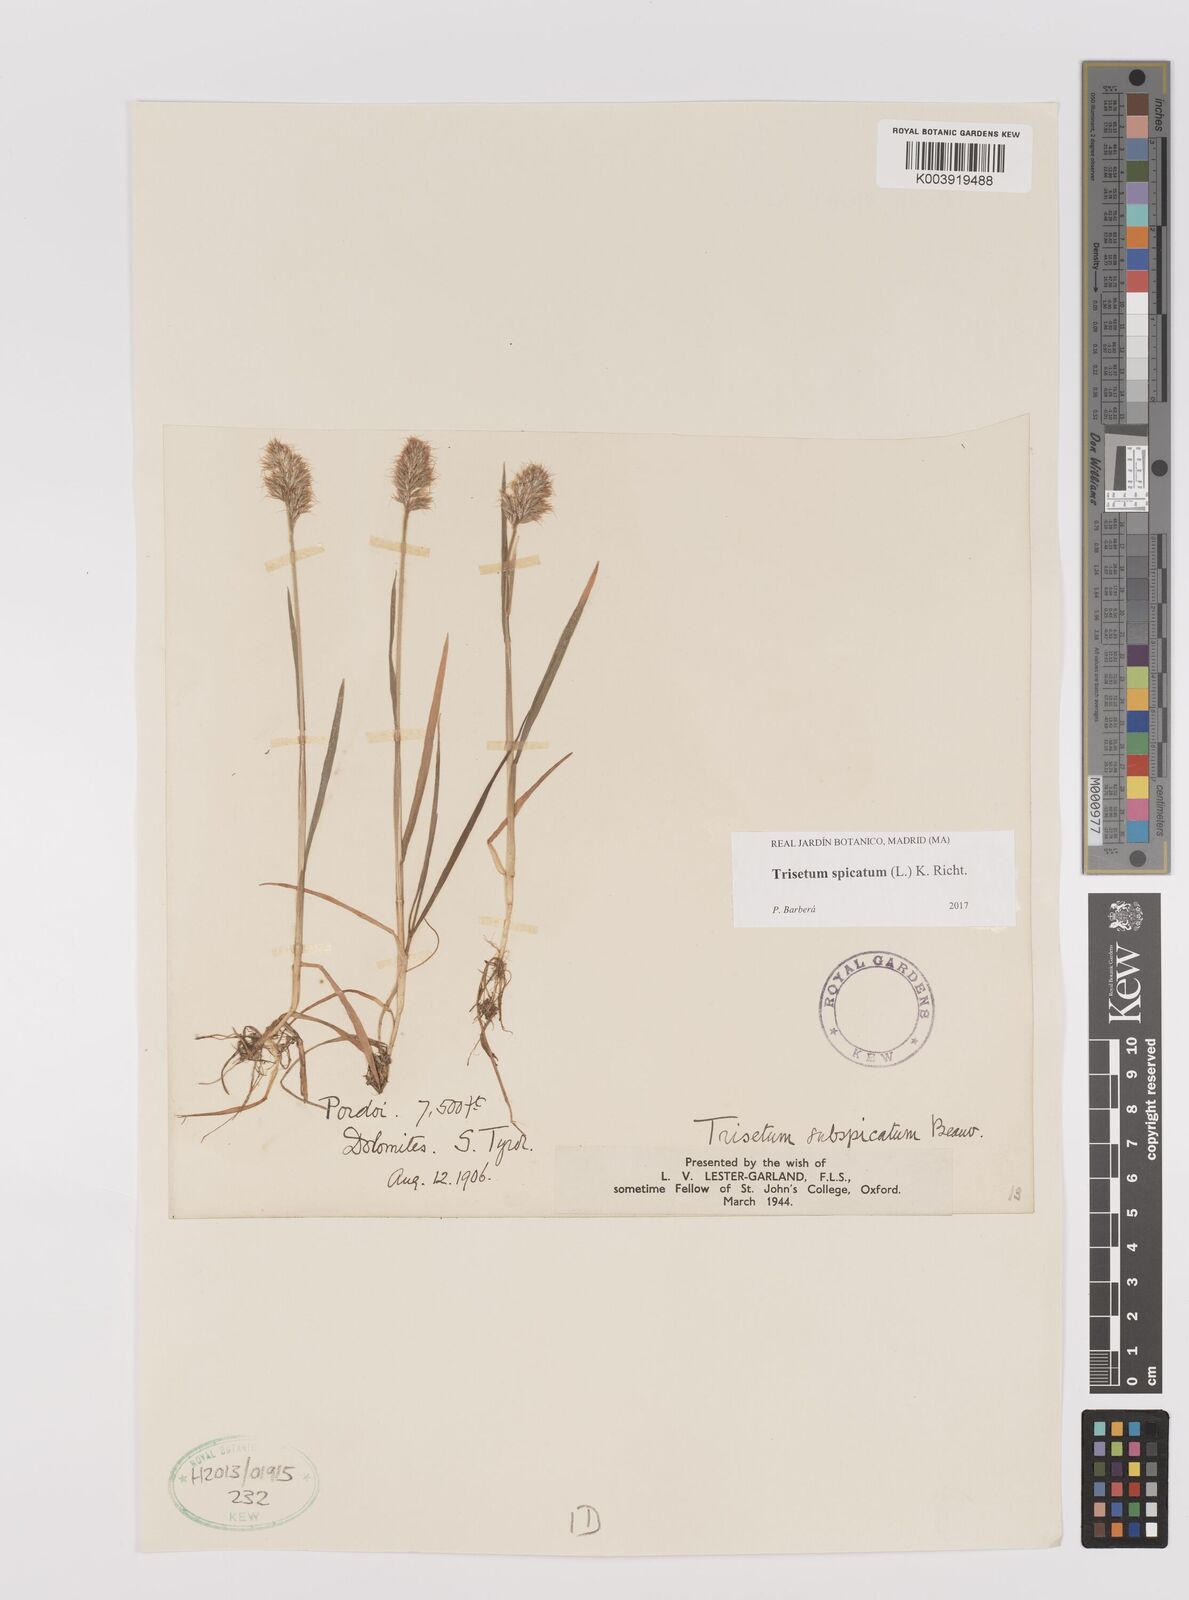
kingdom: Plantae
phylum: Tracheophyta
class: Liliopsida
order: Poales
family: Poaceae
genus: Koeleria
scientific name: Koeleria spicata
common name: Mountain trisetum
